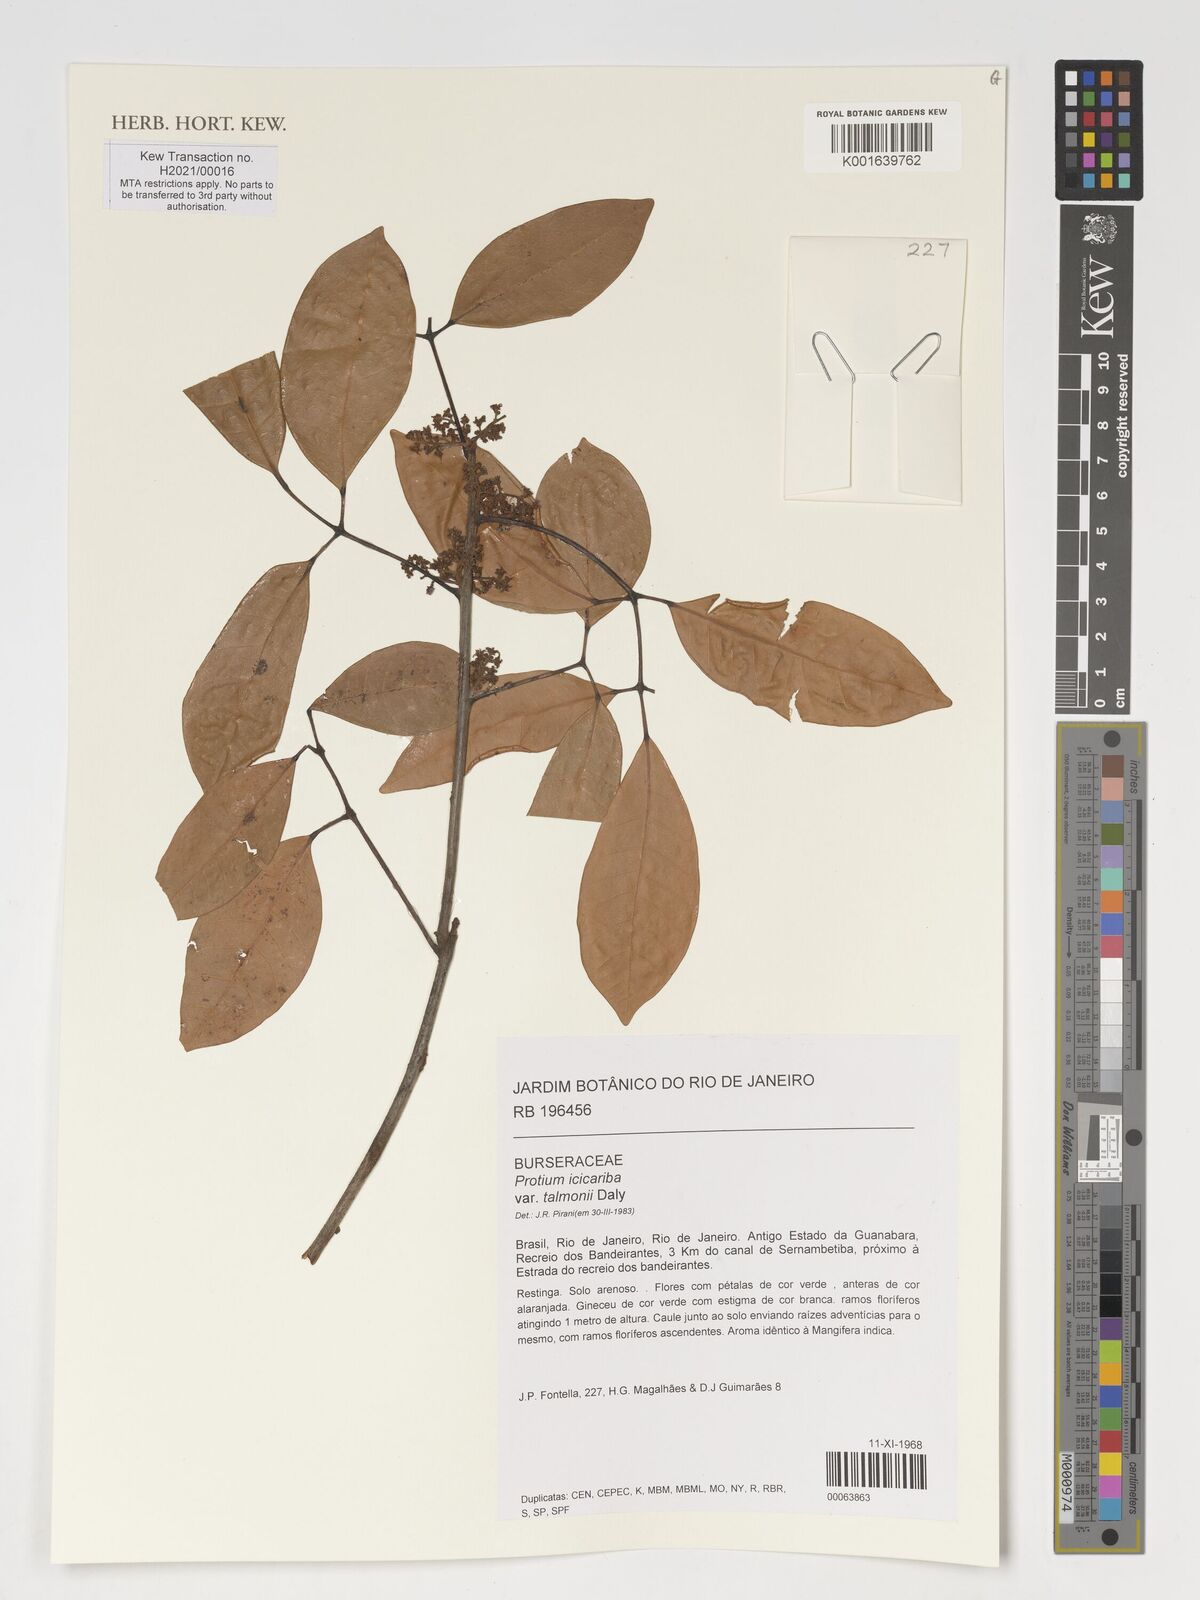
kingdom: Plantae
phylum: Tracheophyta
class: Magnoliopsida
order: Sapindales
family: Burseraceae
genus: Protium
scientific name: Protium icicariba
